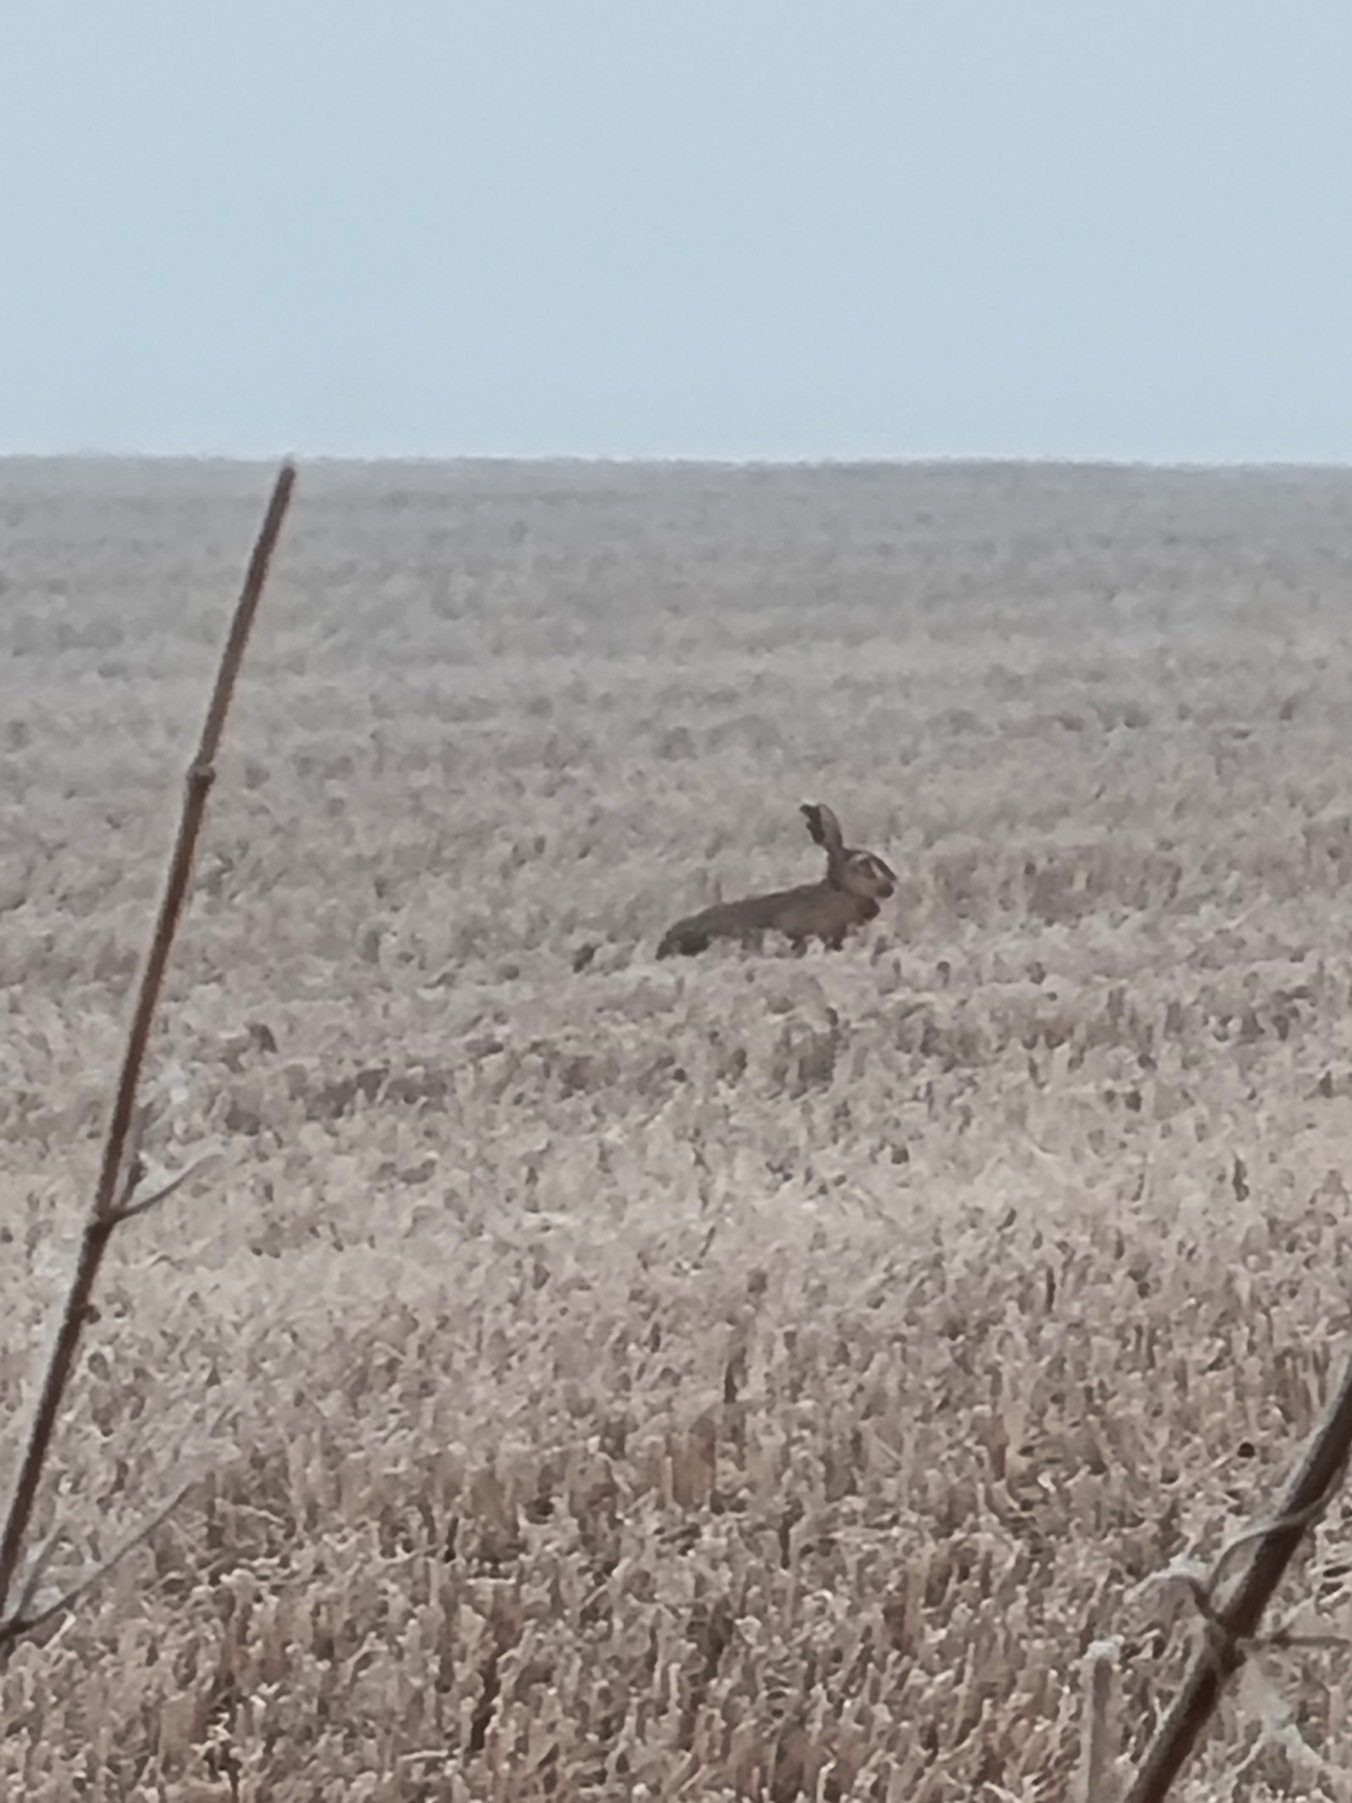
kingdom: Animalia
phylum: Chordata
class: Mammalia
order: Lagomorpha
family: Leporidae
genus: Lepus
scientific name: Lepus europaeus
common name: Hare
